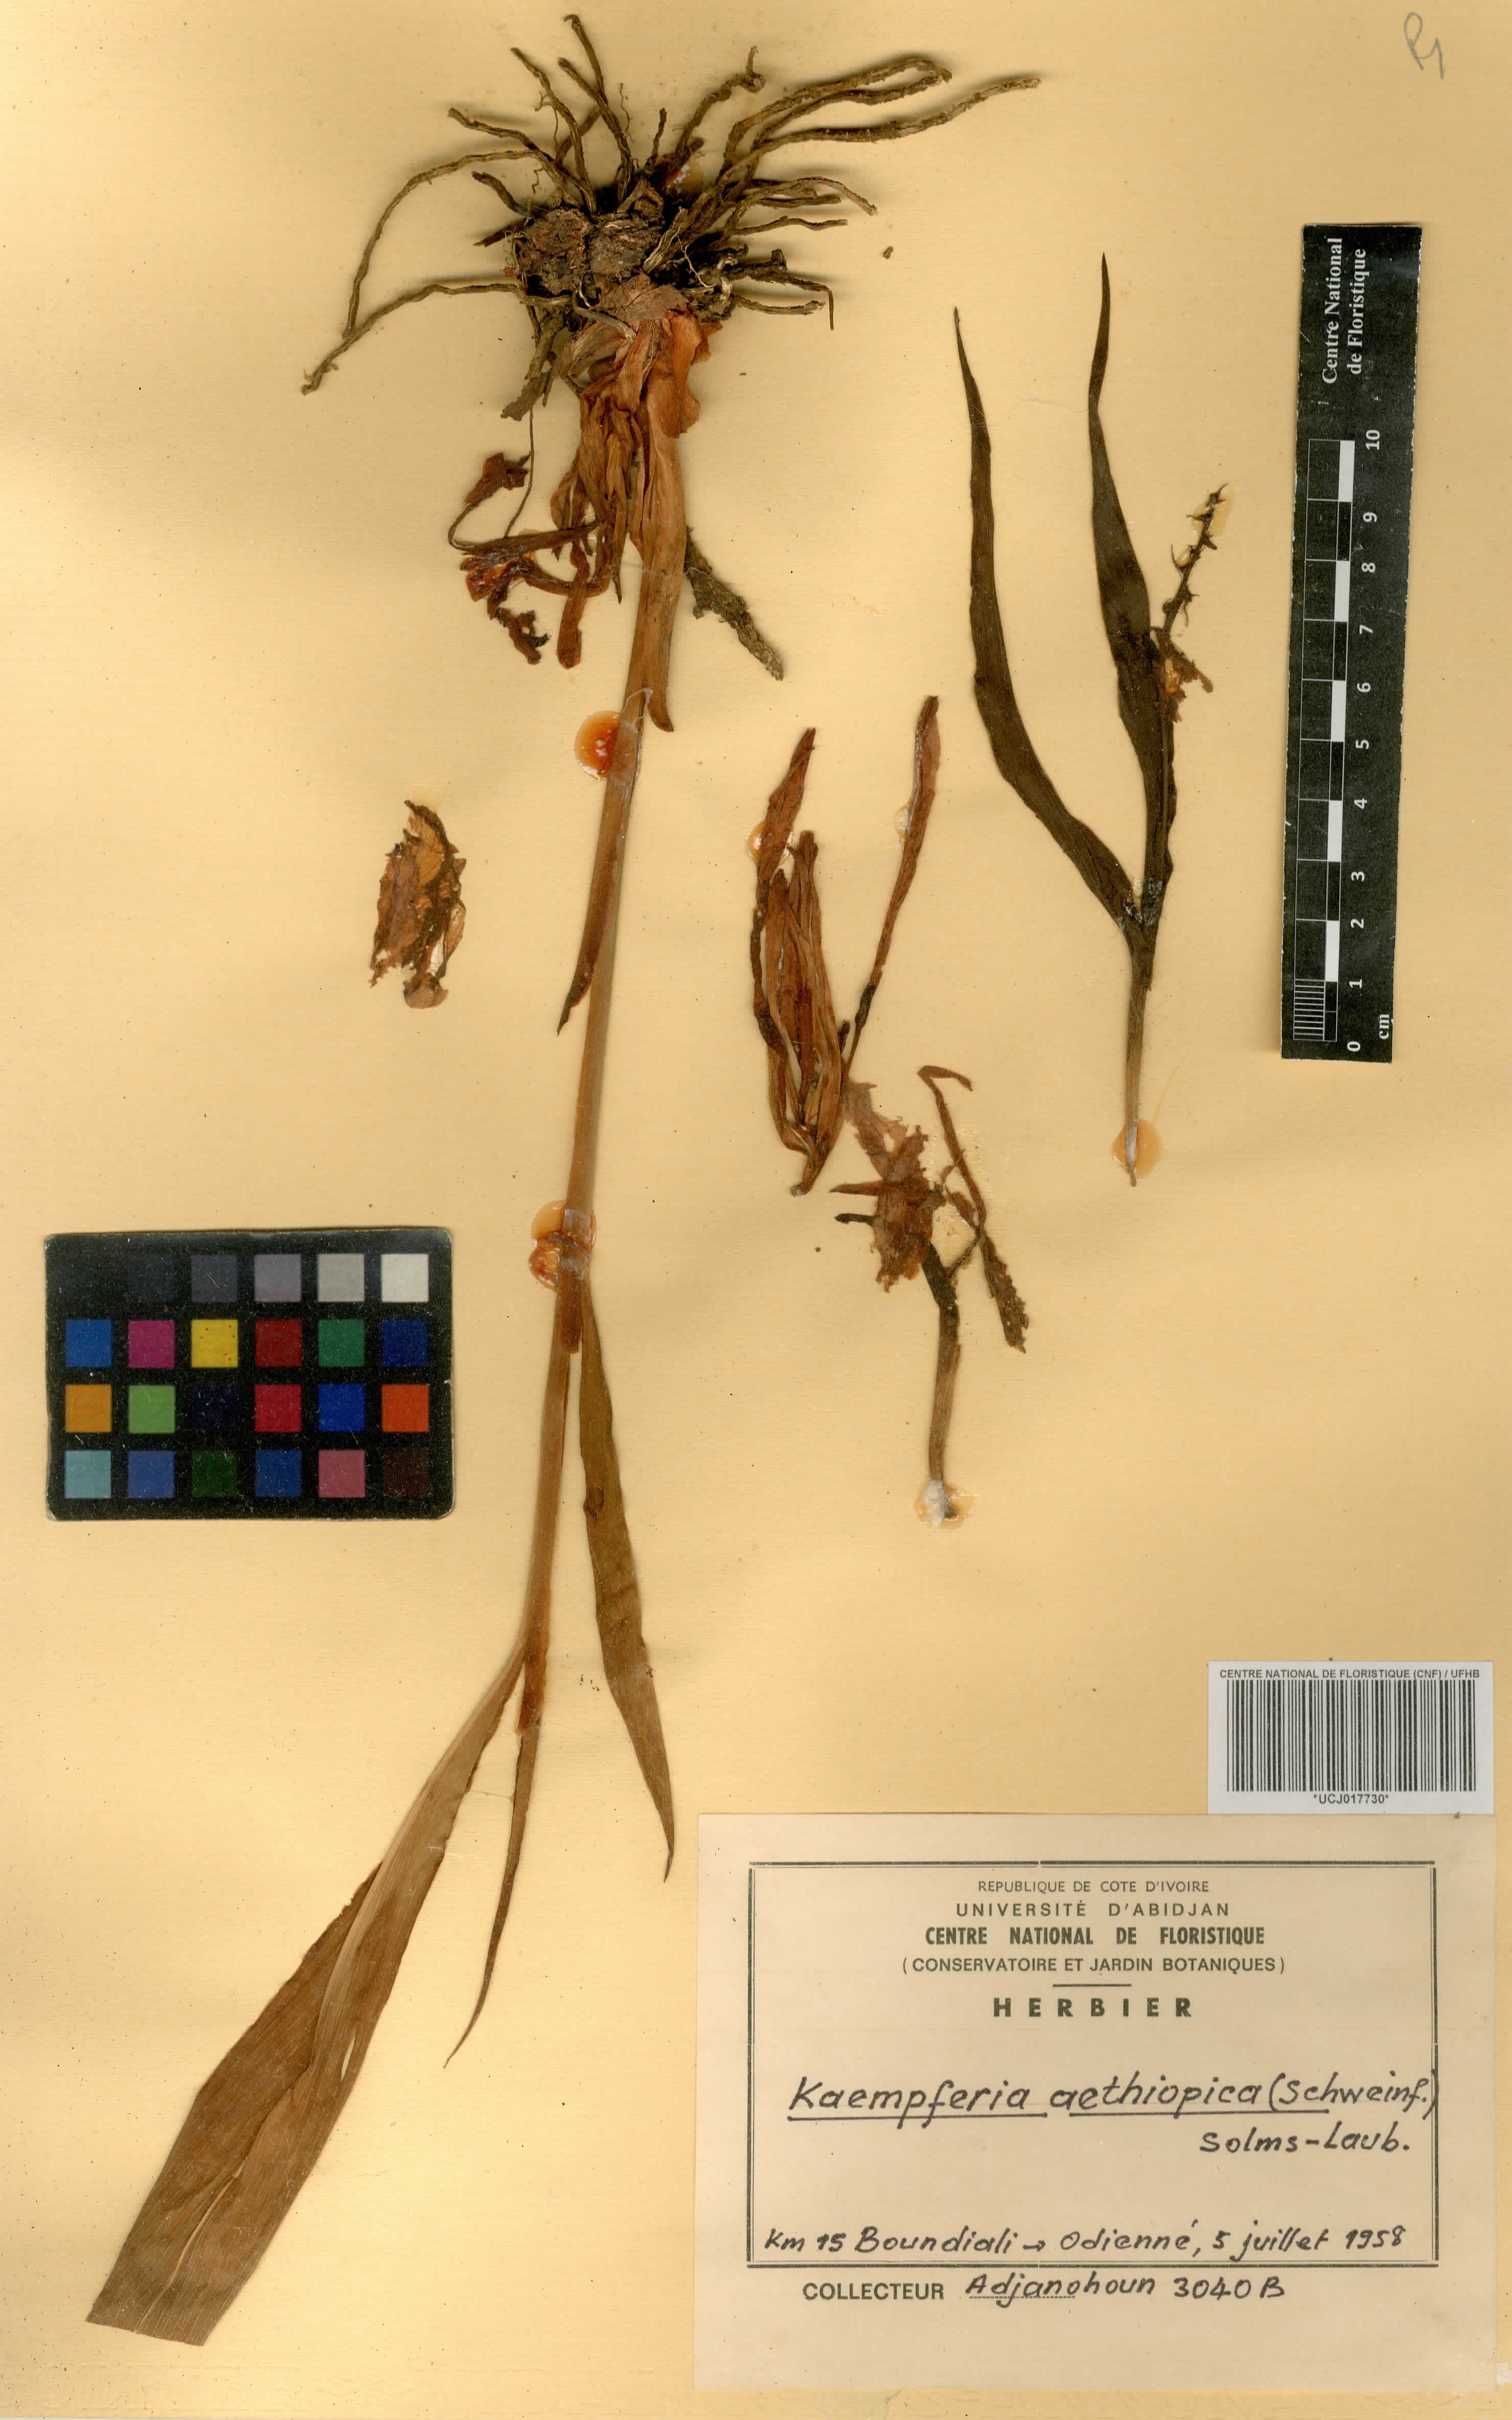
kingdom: Plantae
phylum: Tracheophyta
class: Liliopsida
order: Zingiberales
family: Zingiberaceae
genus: Kaempferia
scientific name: Kaempferia aethiopica
